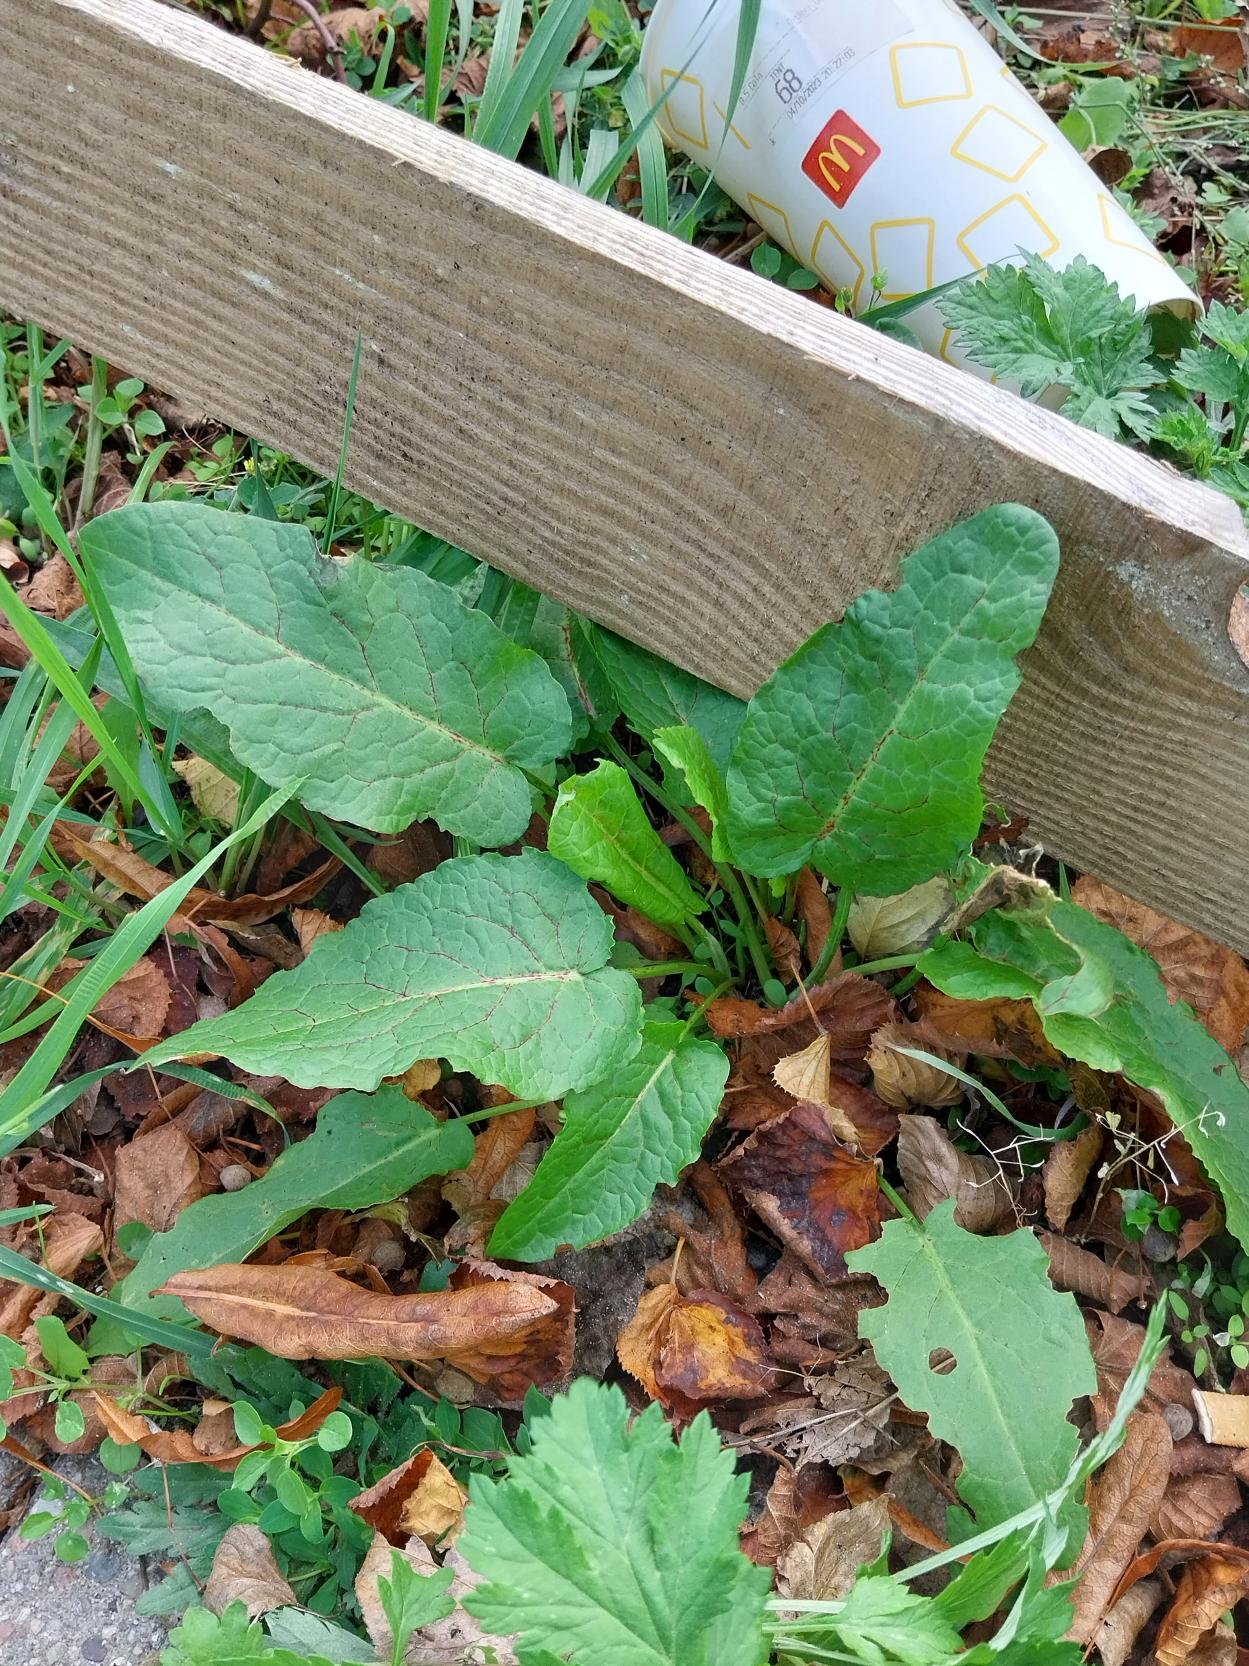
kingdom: Plantae
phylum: Tracheophyta
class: Magnoliopsida
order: Caryophyllales
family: Polygonaceae
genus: Rumex
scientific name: Rumex obtusifolius
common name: Butbladet skræppe
